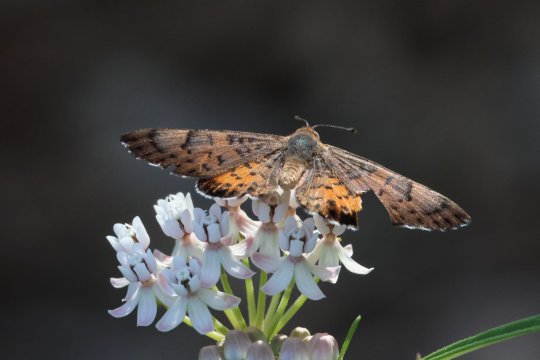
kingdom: Animalia
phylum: Arthropoda
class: Insecta
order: Lepidoptera
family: Lycaenidae
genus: Emesis
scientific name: Emesis zela
